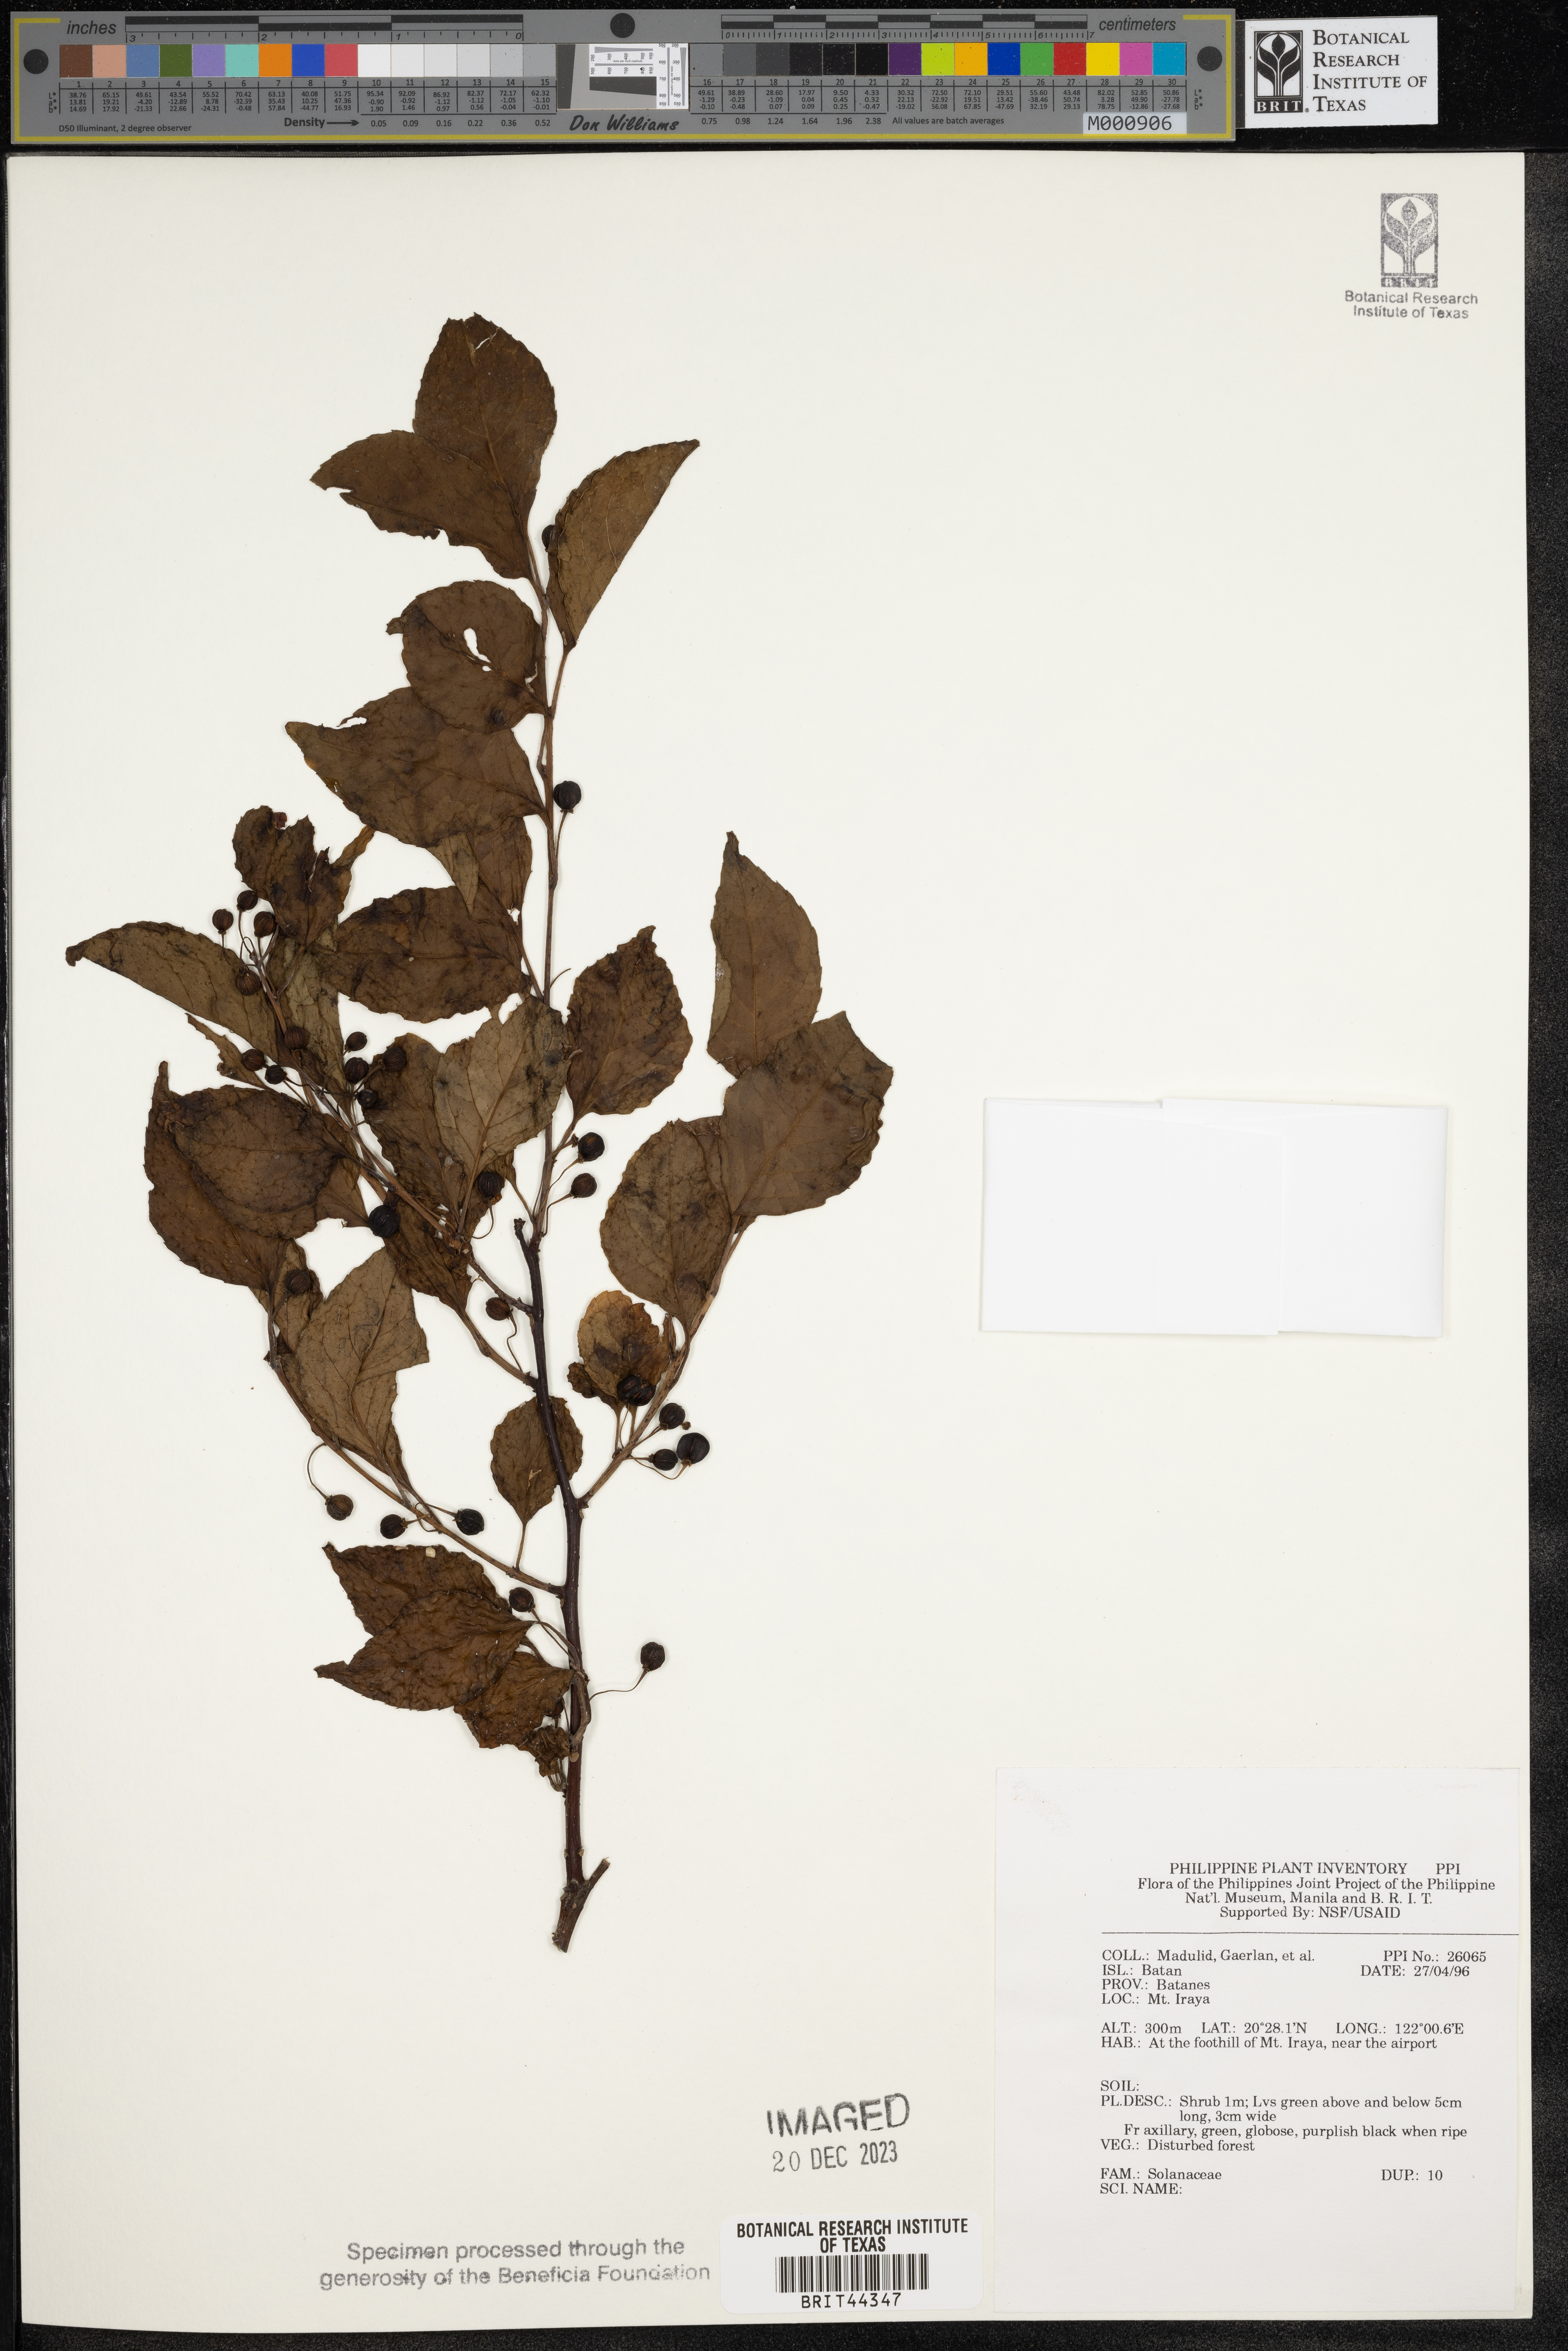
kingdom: Plantae
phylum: Tracheophyta
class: Magnoliopsida
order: Solanales
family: Solanaceae
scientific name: Solanaceae
